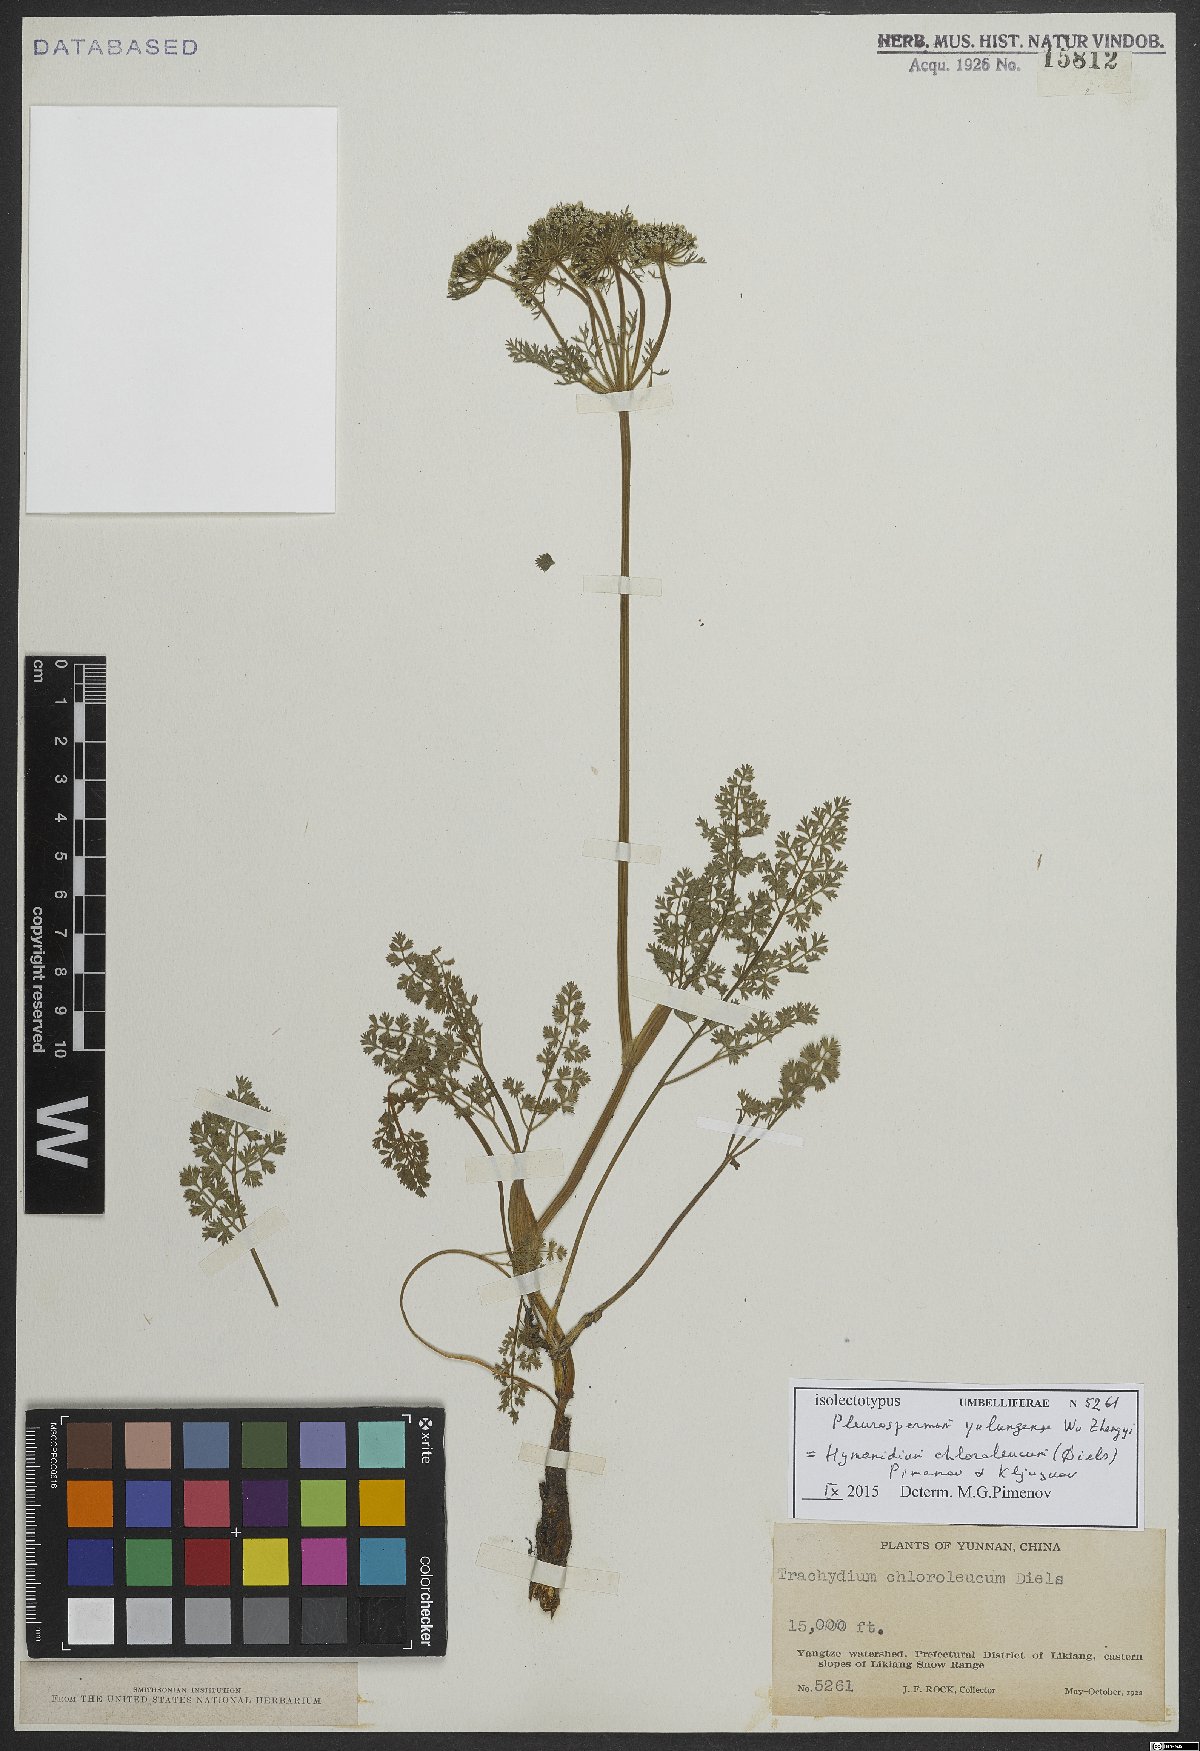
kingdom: Plantae
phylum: Tracheophyta
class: Magnoliopsida
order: Apiales
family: Apiaceae
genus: Hymenidium
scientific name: Hymenidium chloroleucum
